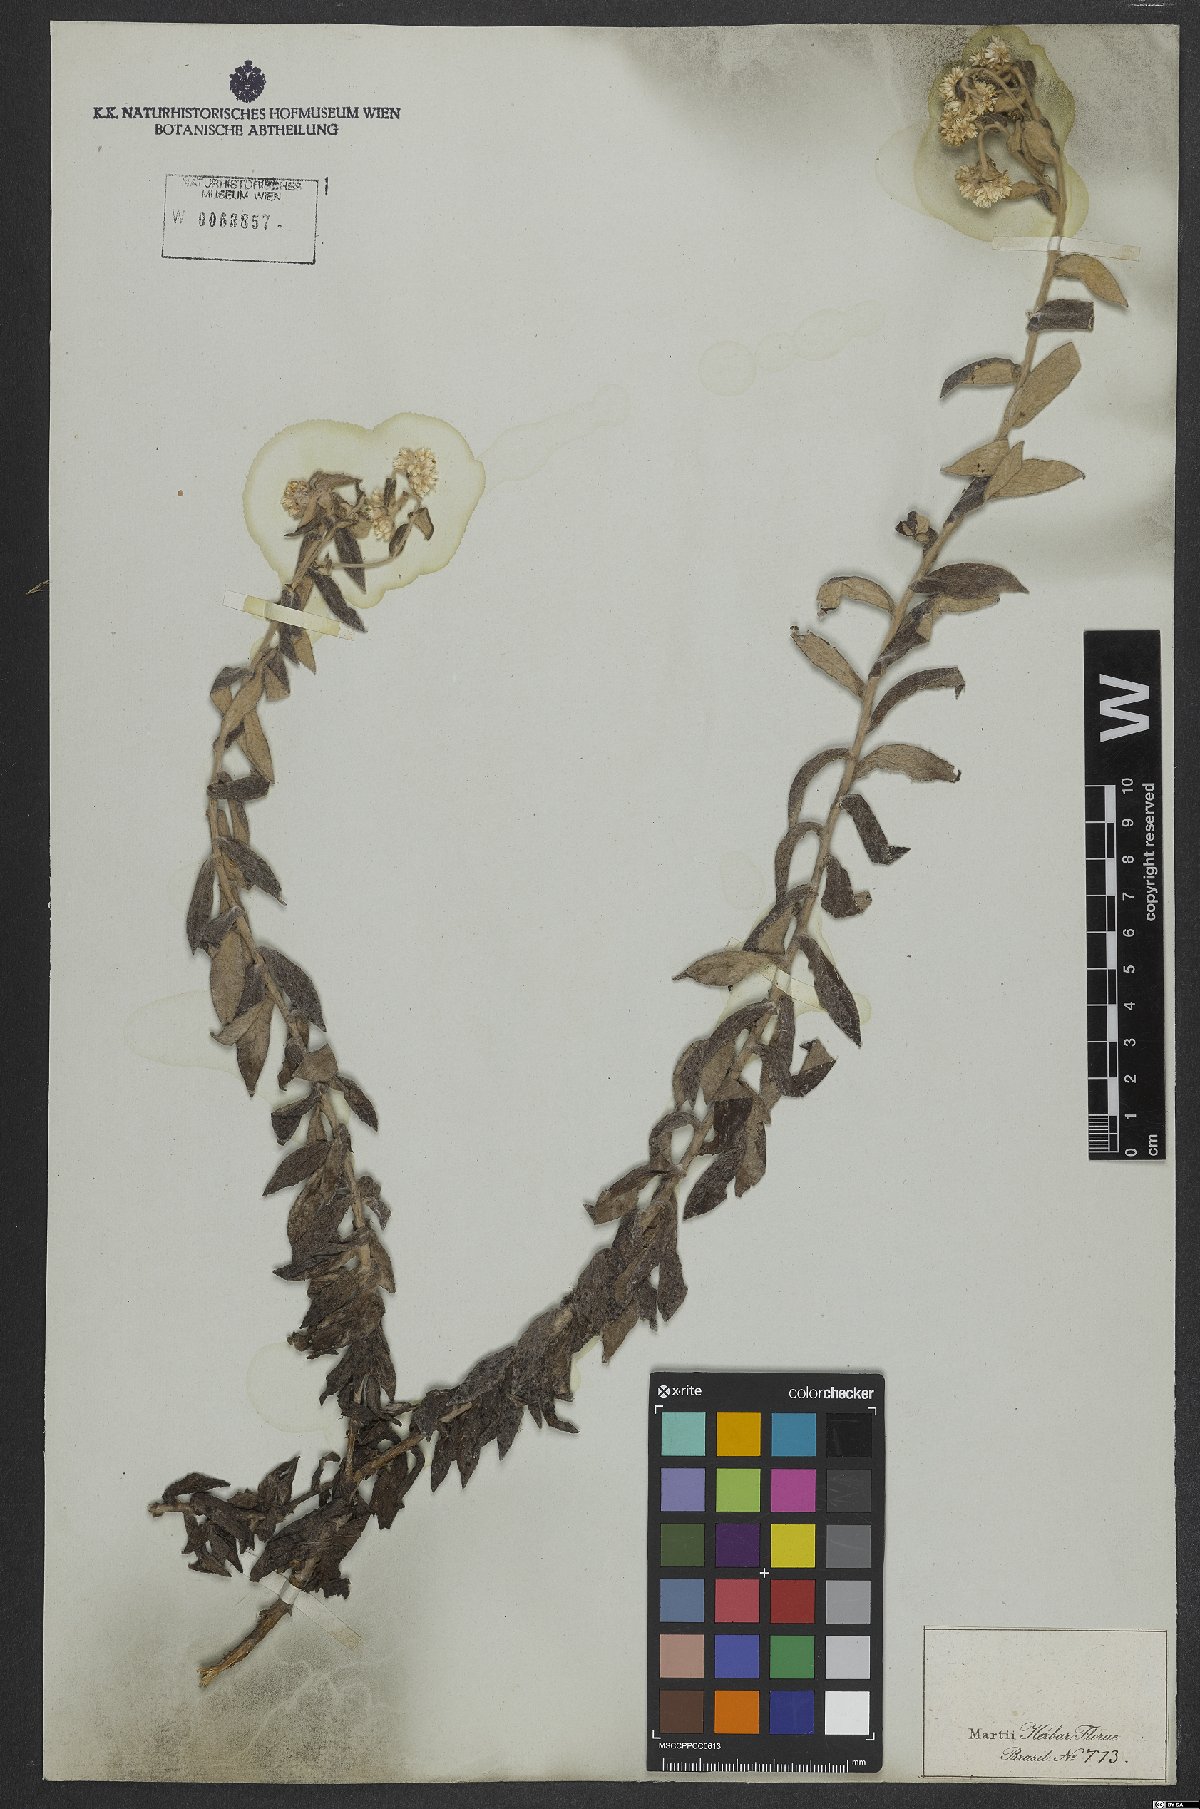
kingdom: Plantae
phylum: Tracheophyta
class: Magnoliopsida
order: Asterales
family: Asteraceae
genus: Achyrocline
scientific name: Achyrocline chionaea
